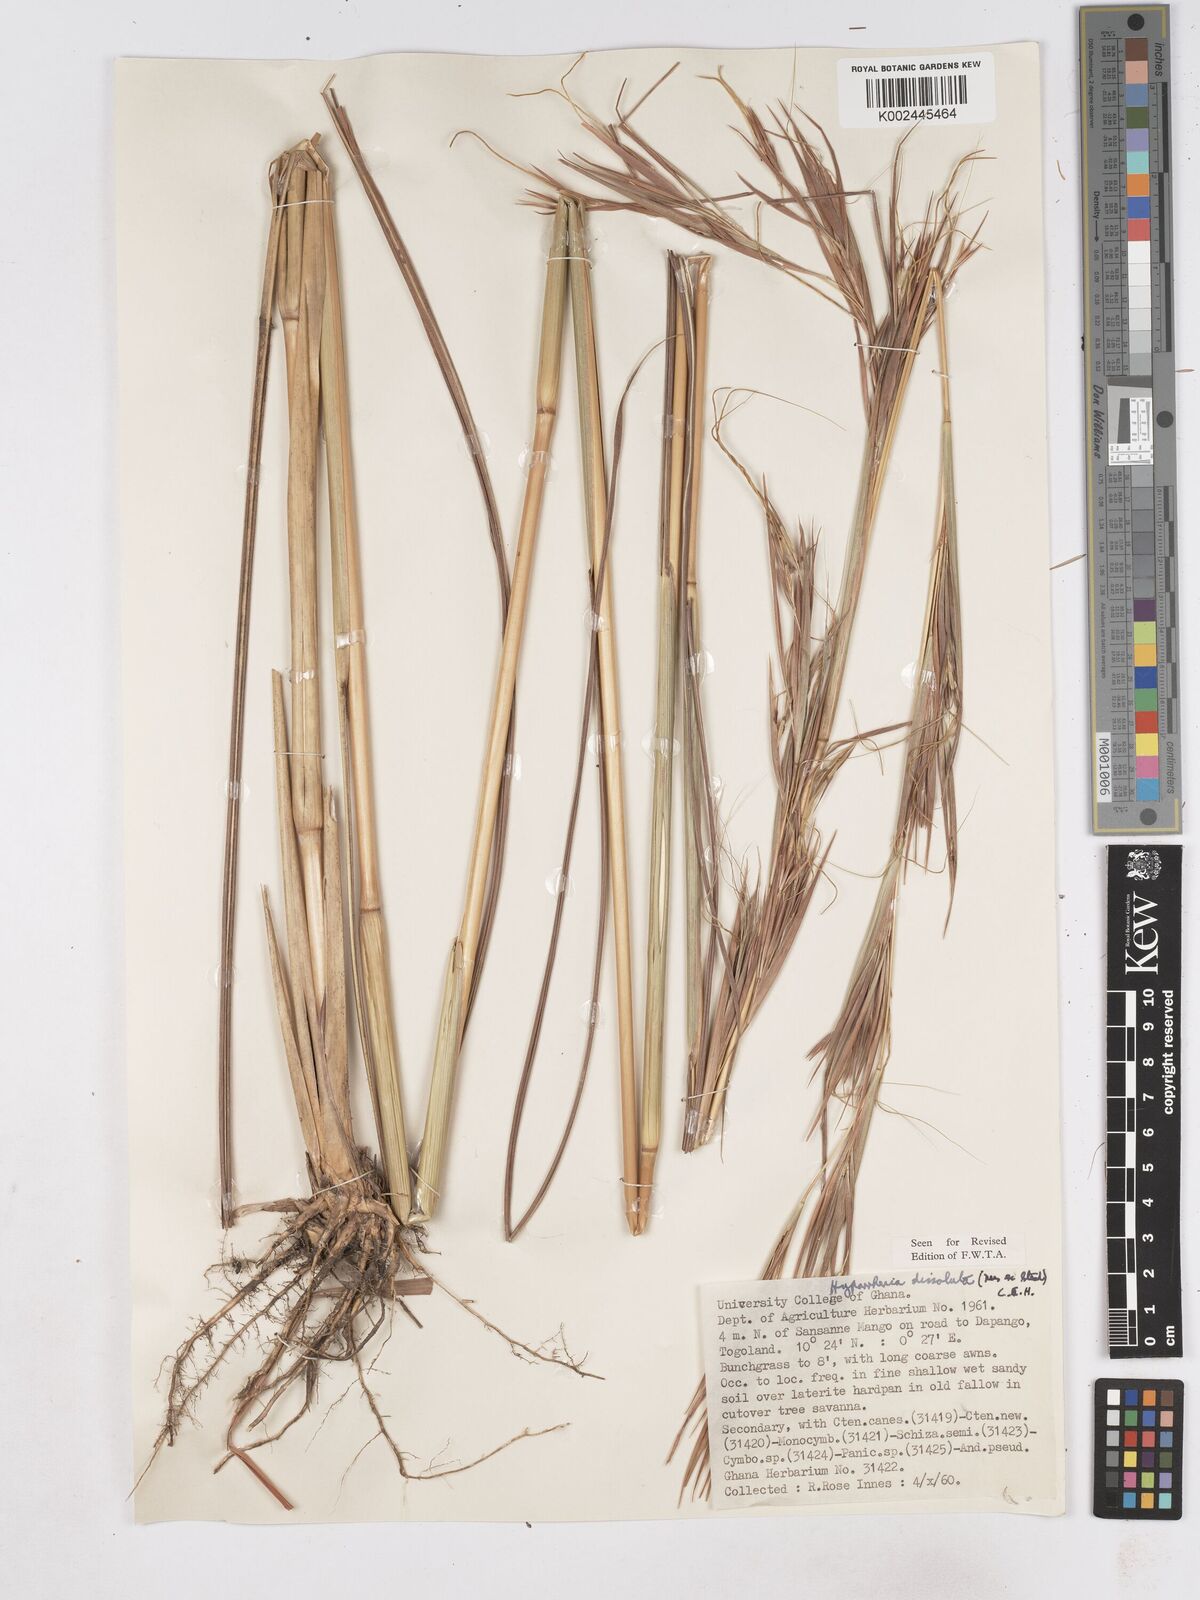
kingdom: Plantae
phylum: Tracheophyta
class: Liliopsida
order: Poales
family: Poaceae
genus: Hyperthelia
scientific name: Hyperthelia dissoluta
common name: Yellow thatching grass
